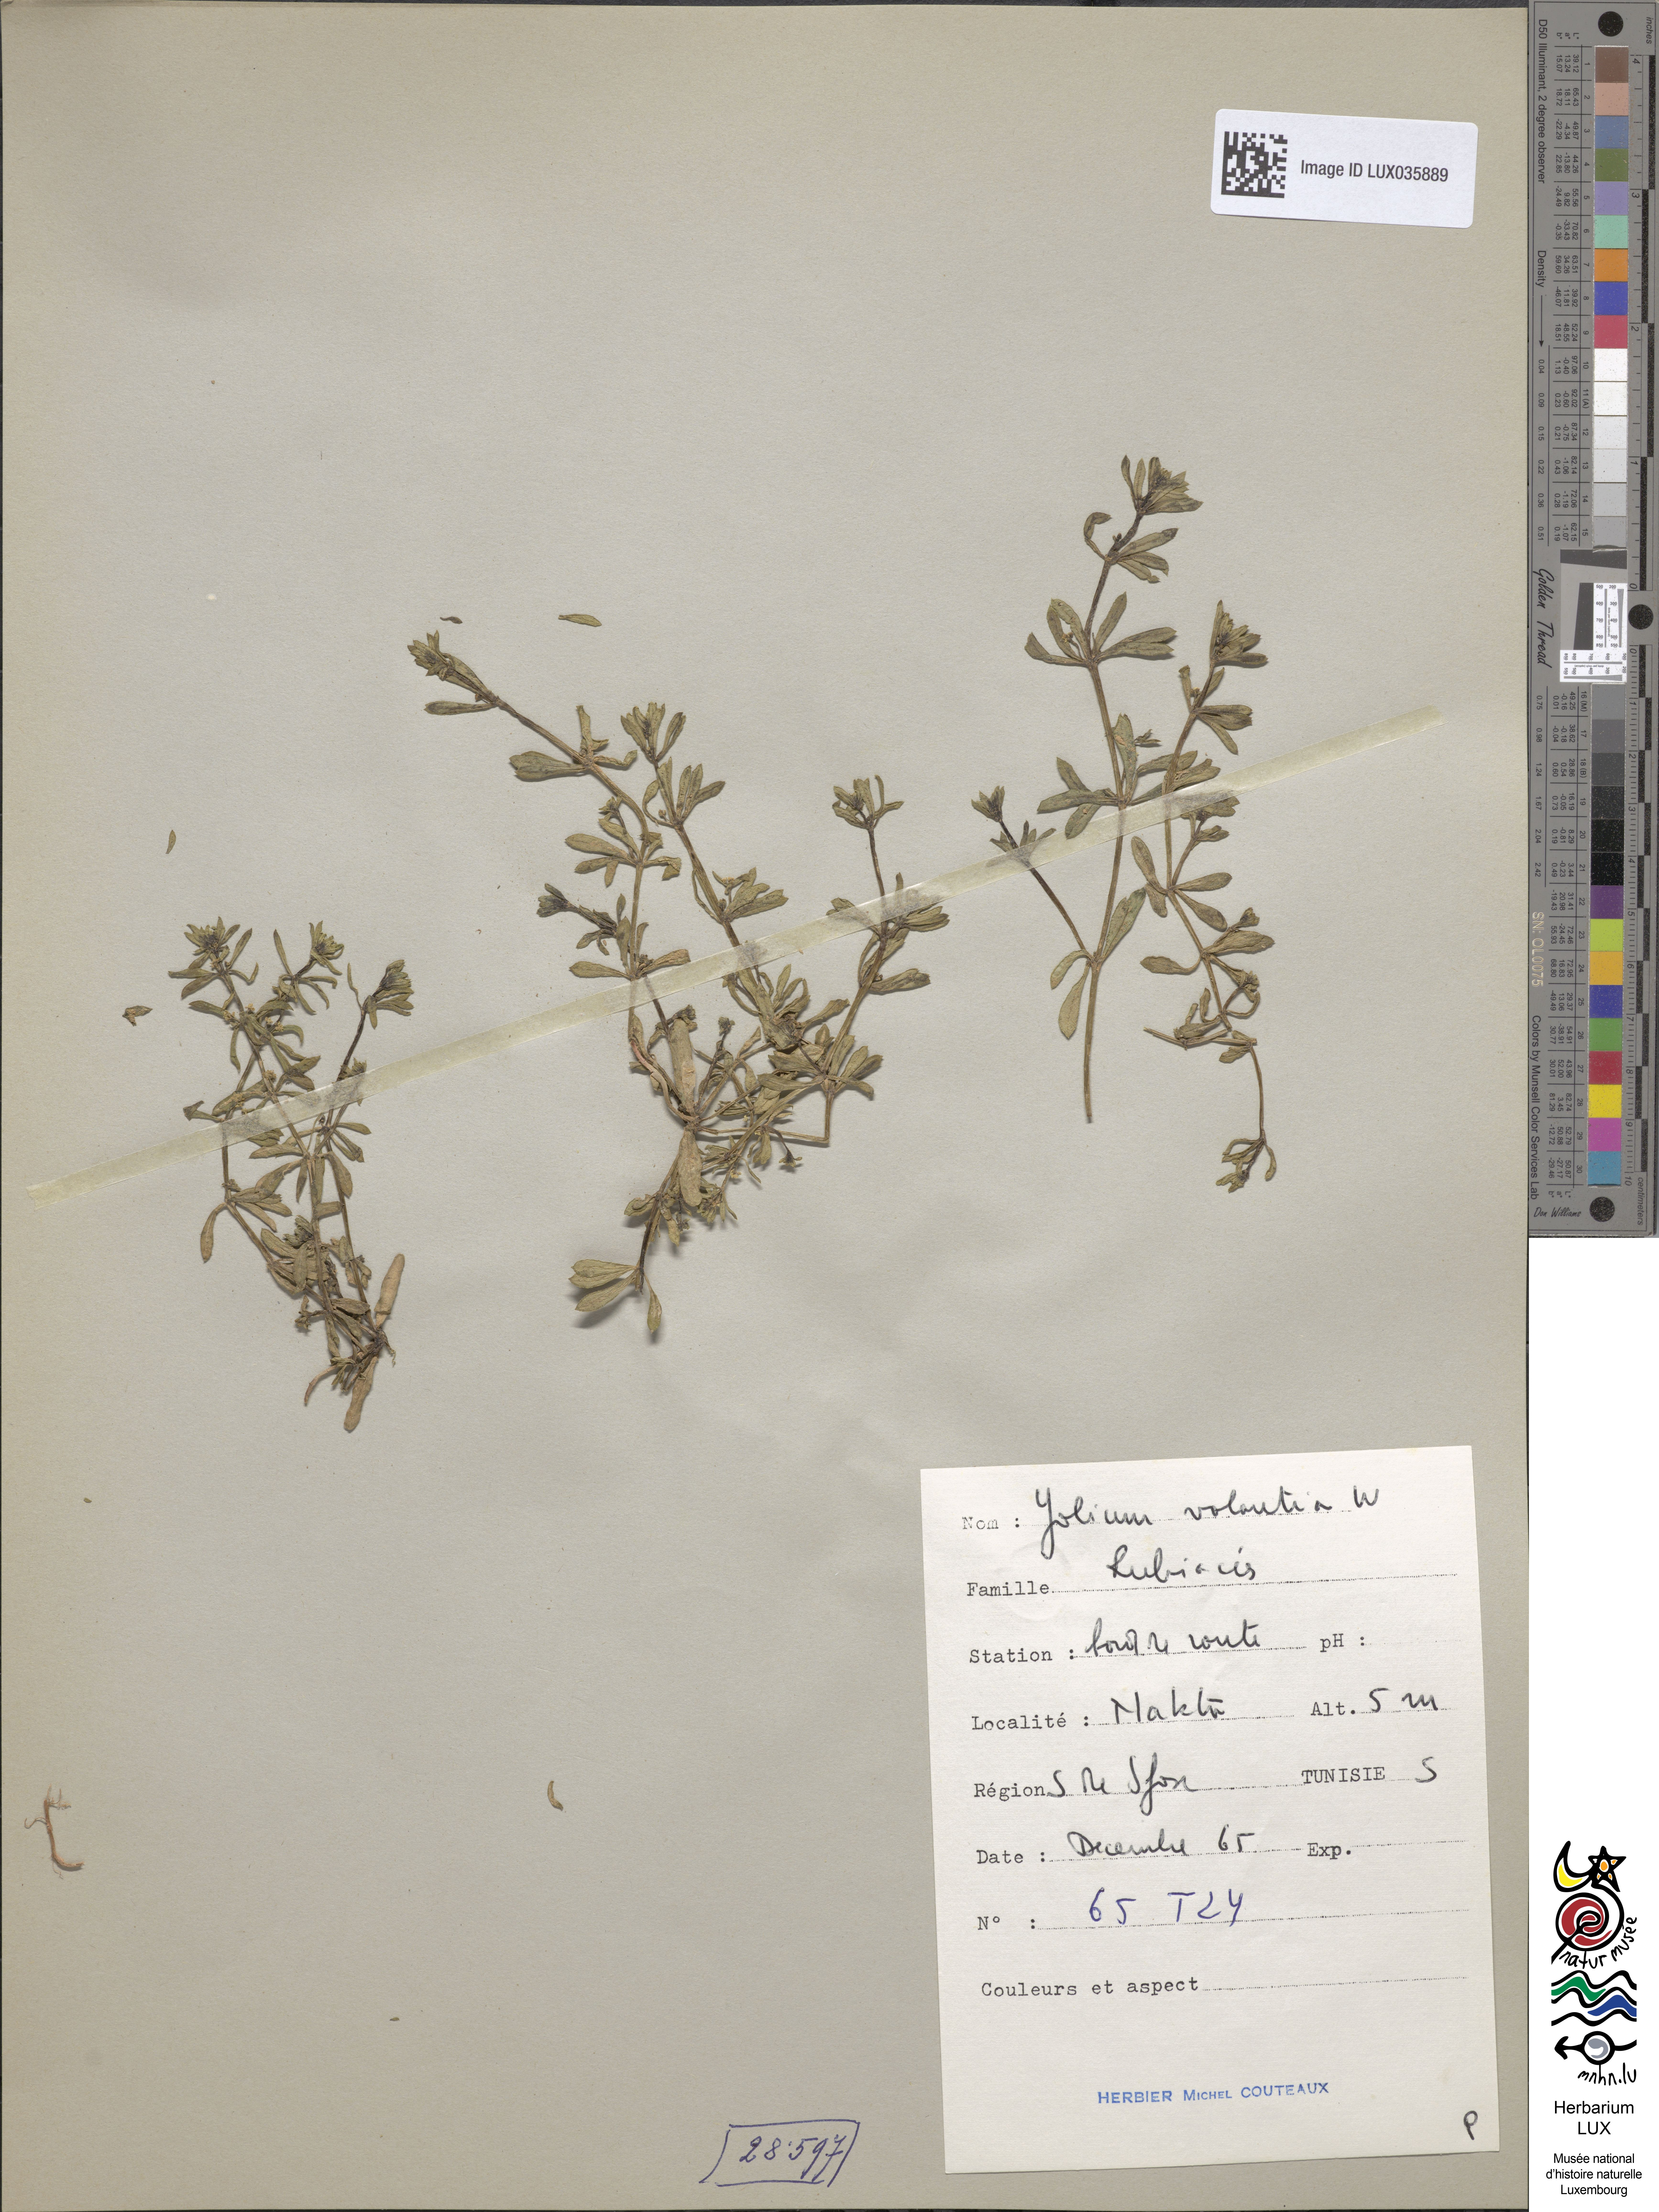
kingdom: Plantae
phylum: Tracheophyta
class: Magnoliopsida
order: Gentianales
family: Rubiaceae
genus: Galium
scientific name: Galium verrucosum
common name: Warty bedstraw
